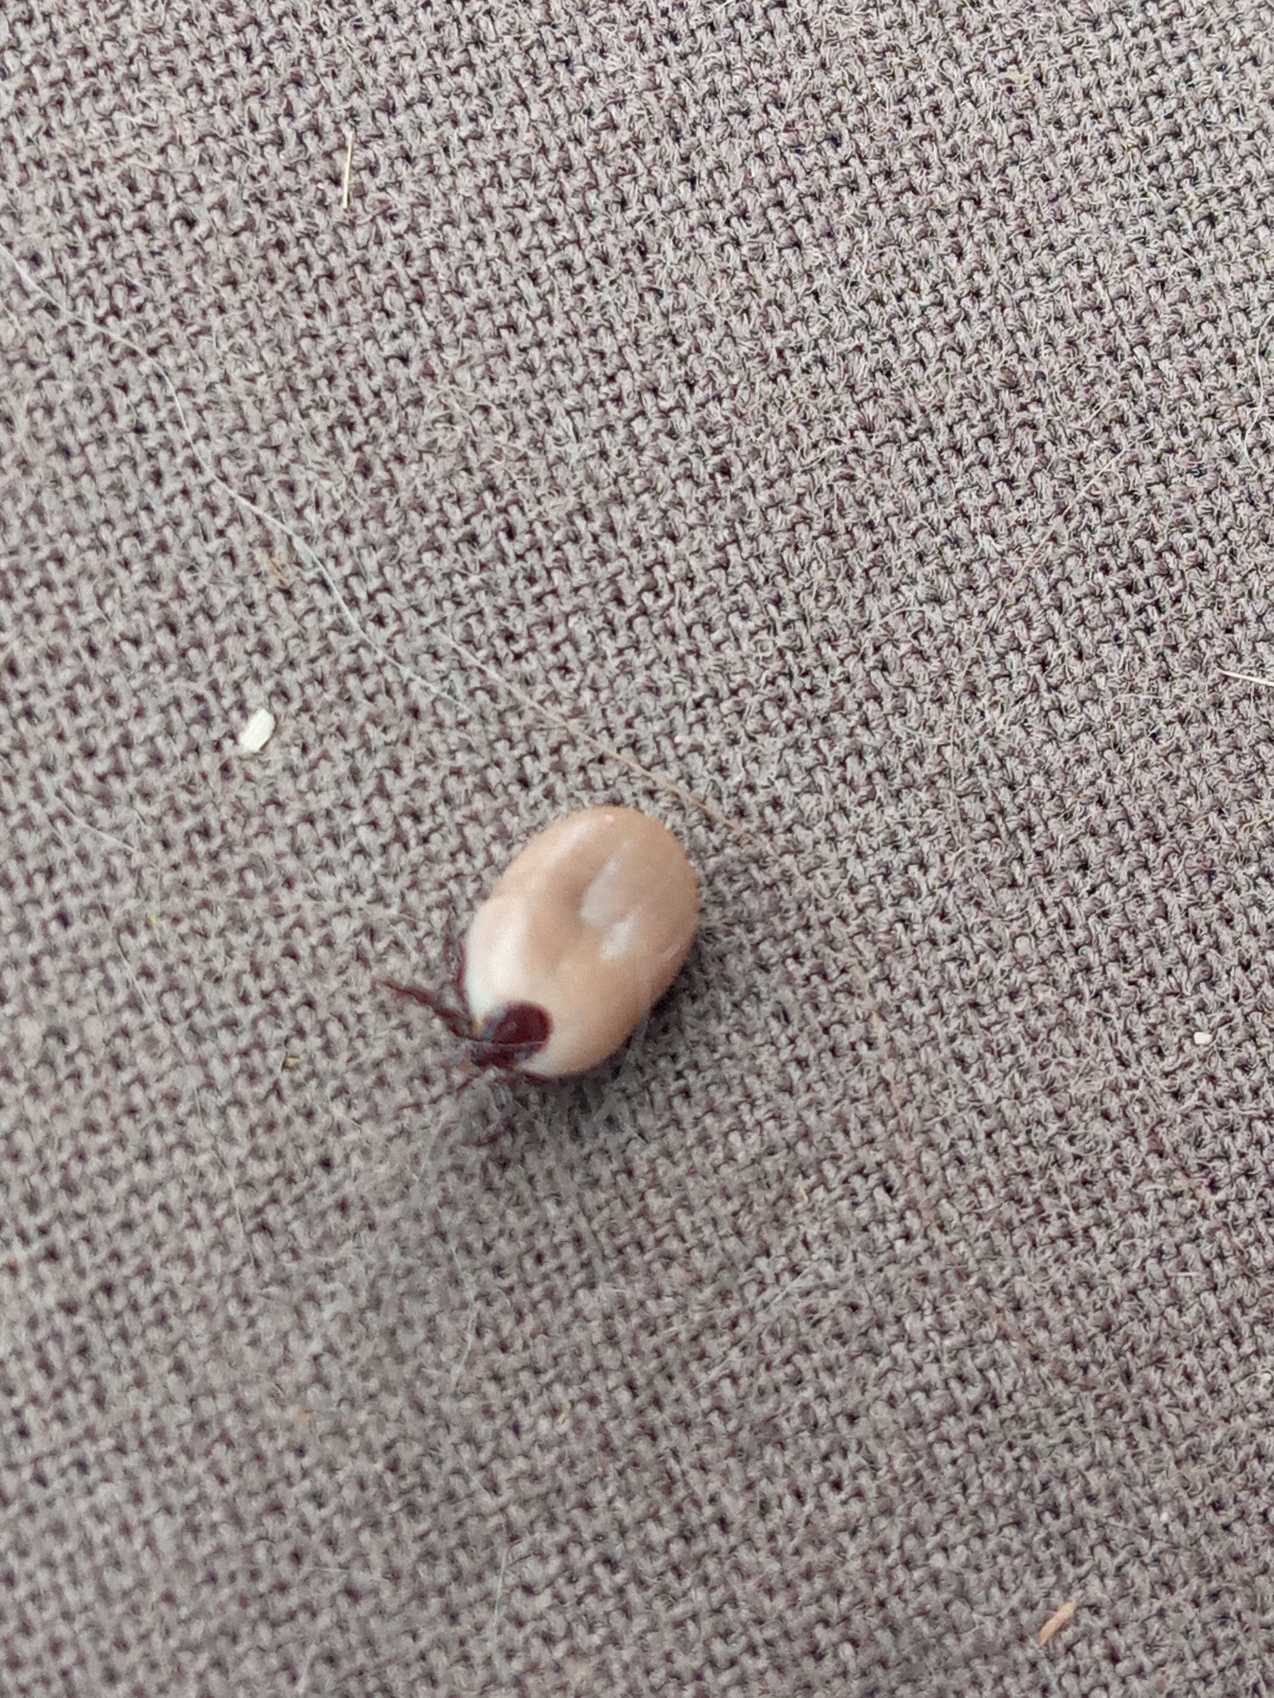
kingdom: Animalia
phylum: Arthropoda
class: Arachnida
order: Ixodida
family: Ixodidae
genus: Ixodes
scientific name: Ixodes ricinus
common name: Skovflåt
